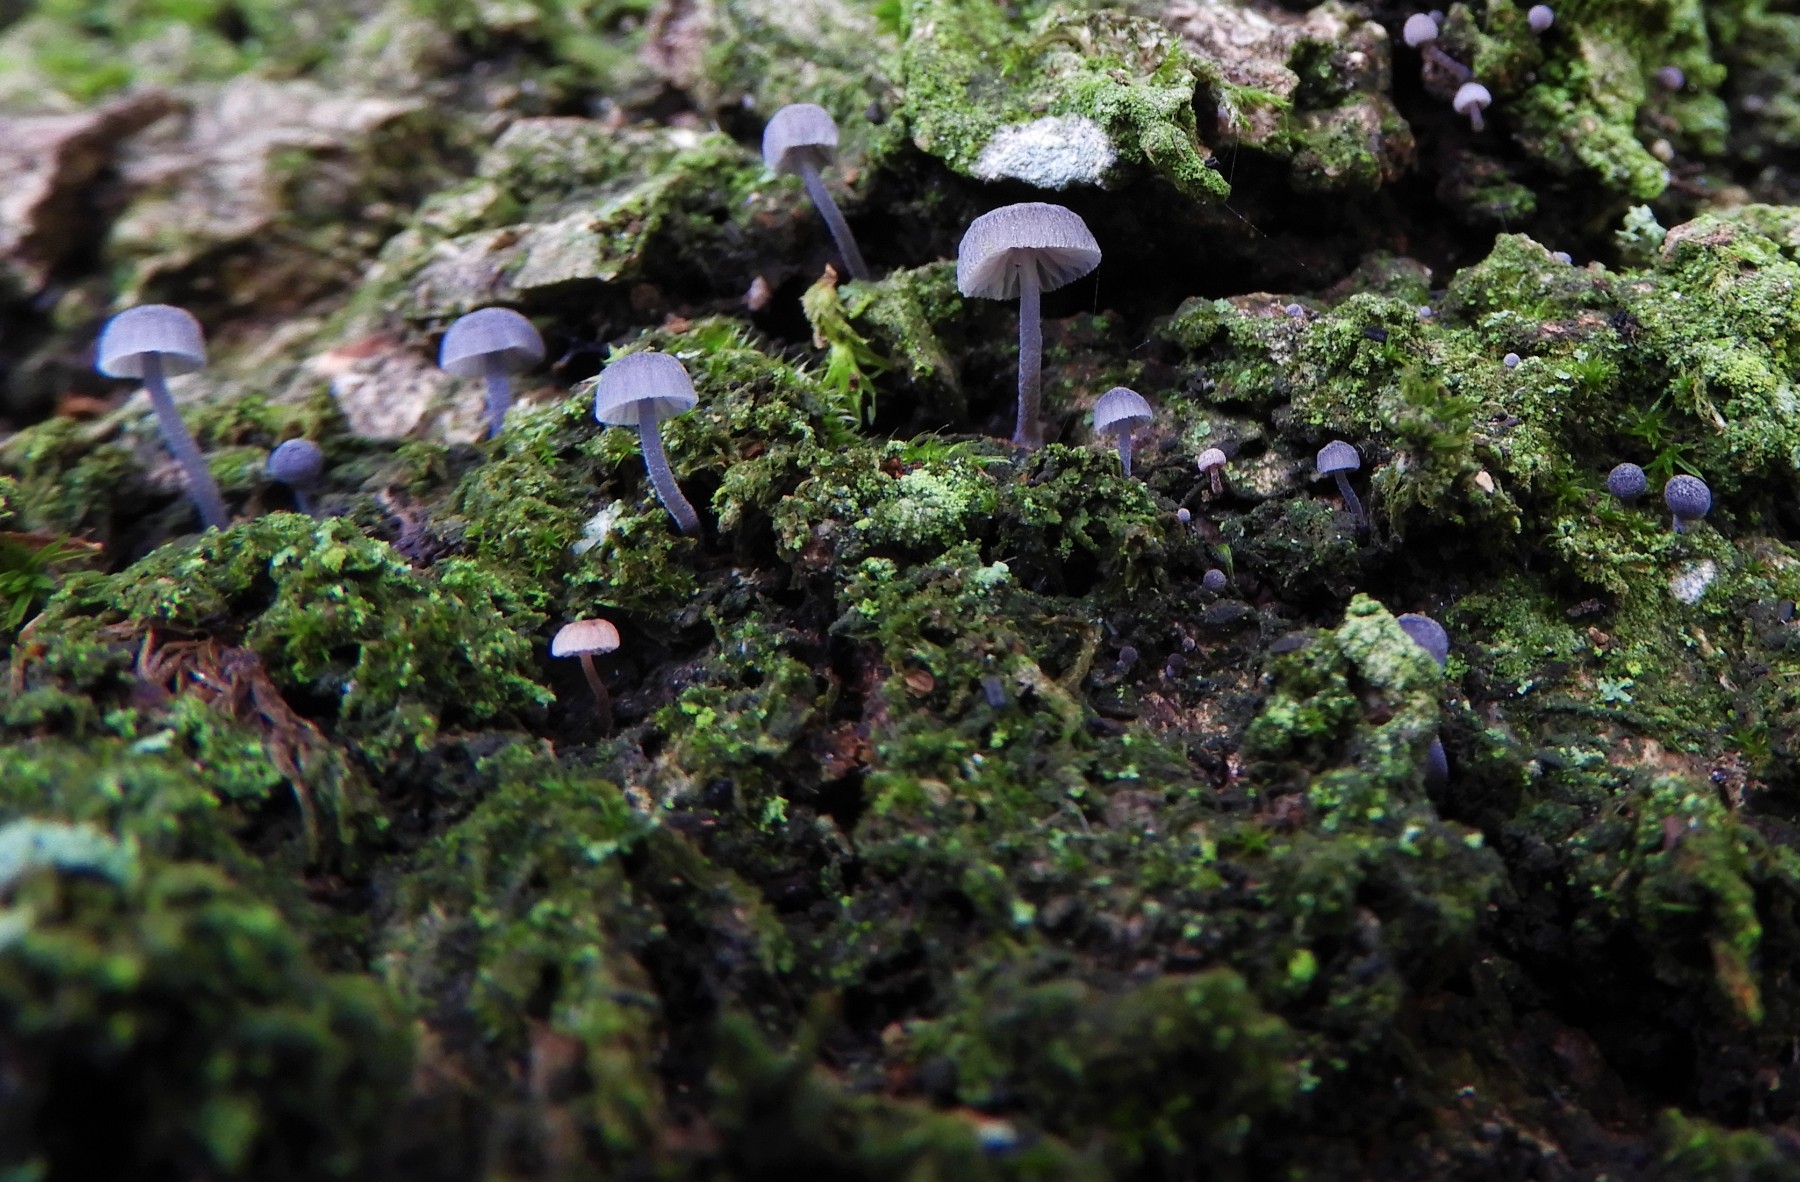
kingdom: Fungi
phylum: Basidiomycota
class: Agaricomycetes
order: Agaricales
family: Mycenaceae
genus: Mycena
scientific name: Mycena pseudocorticola
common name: gråblå bark-huesvamp
